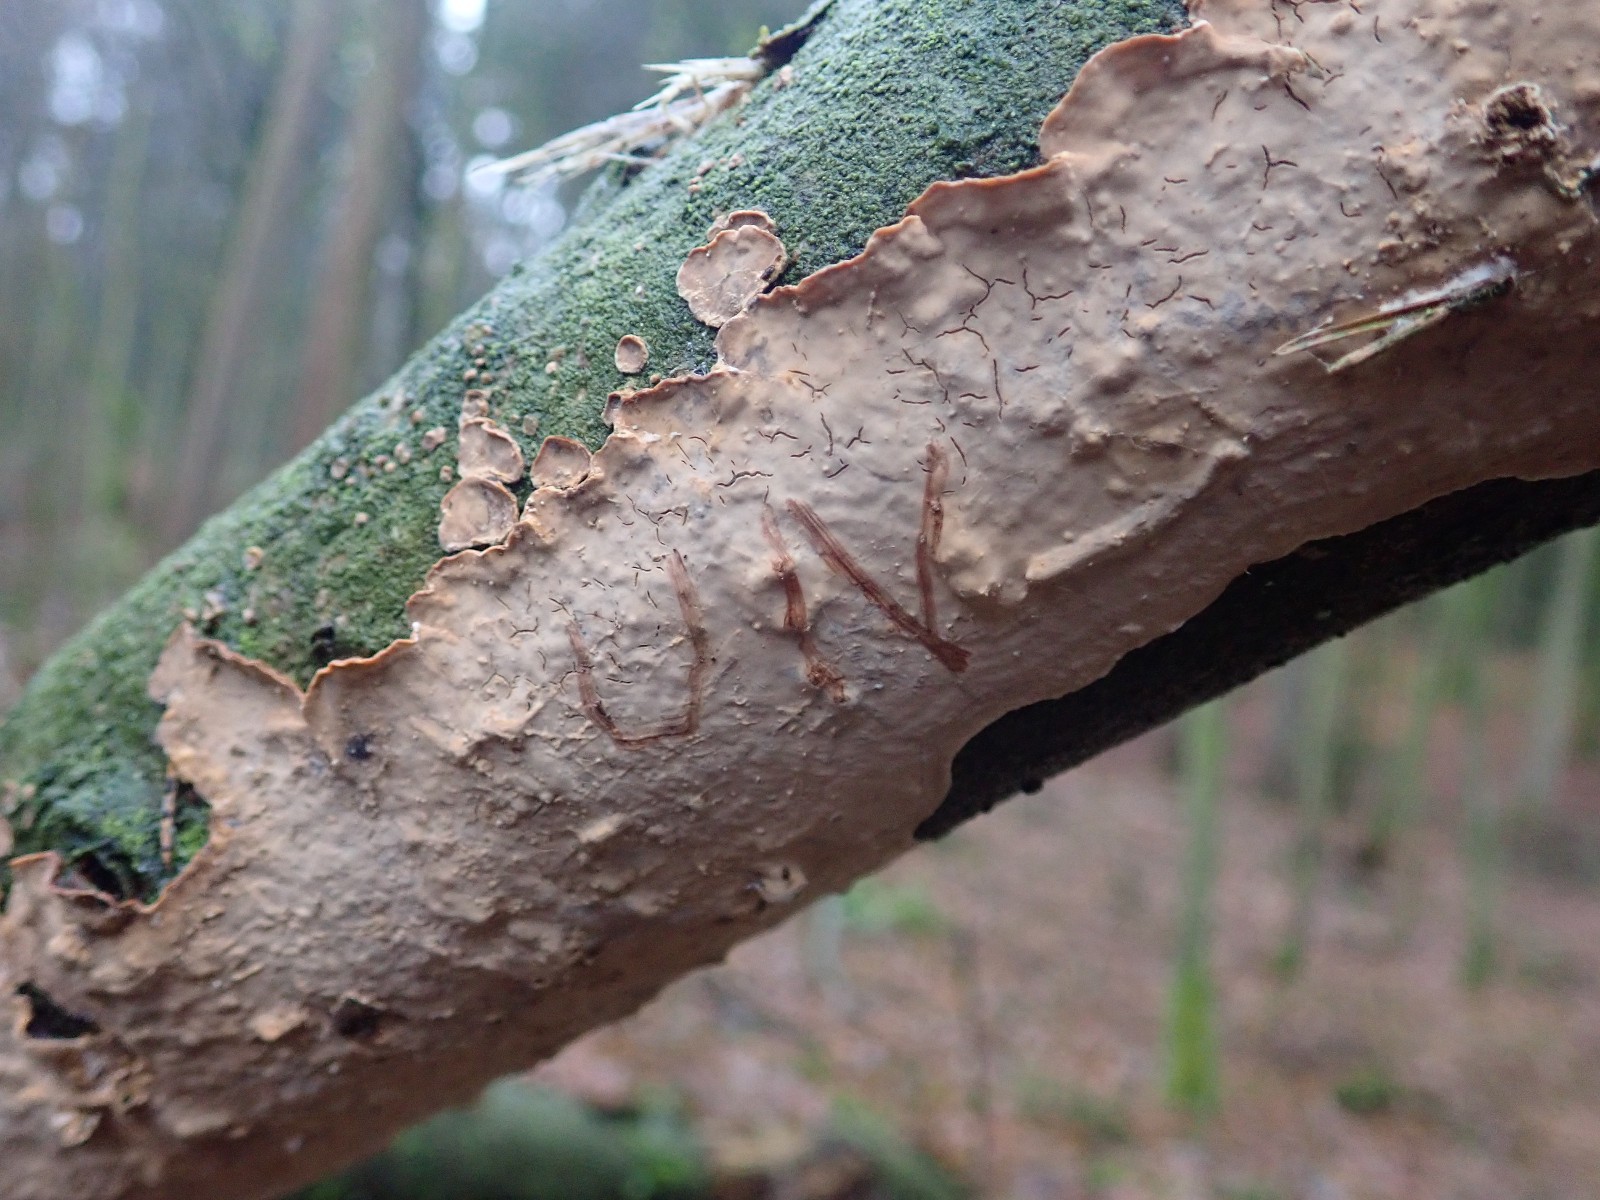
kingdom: Fungi
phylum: Basidiomycota
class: Agaricomycetes
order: Russulales
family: Stereaceae
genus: Stereum
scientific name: Stereum rugosum
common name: rynket lædersvamp
